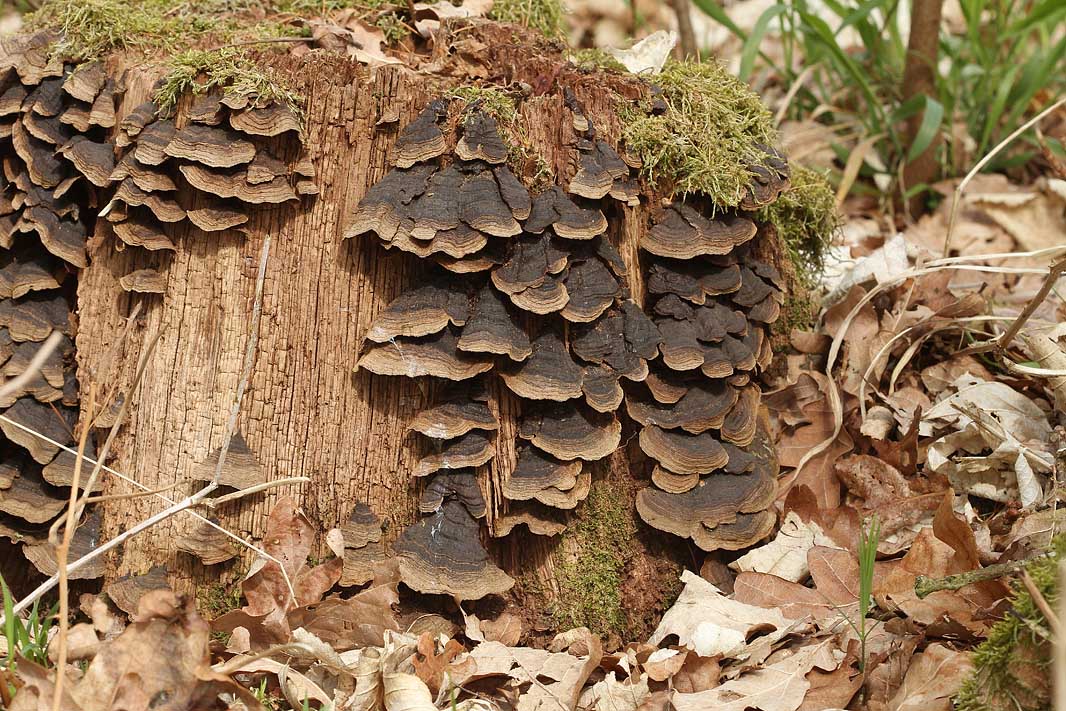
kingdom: Fungi
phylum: Basidiomycota
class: Agaricomycetes
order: Hymenochaetales
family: Hymenochaetaceae
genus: Hymenochaete
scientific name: Hymenochaete rubiginosa
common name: stiv ruslædersvamp
